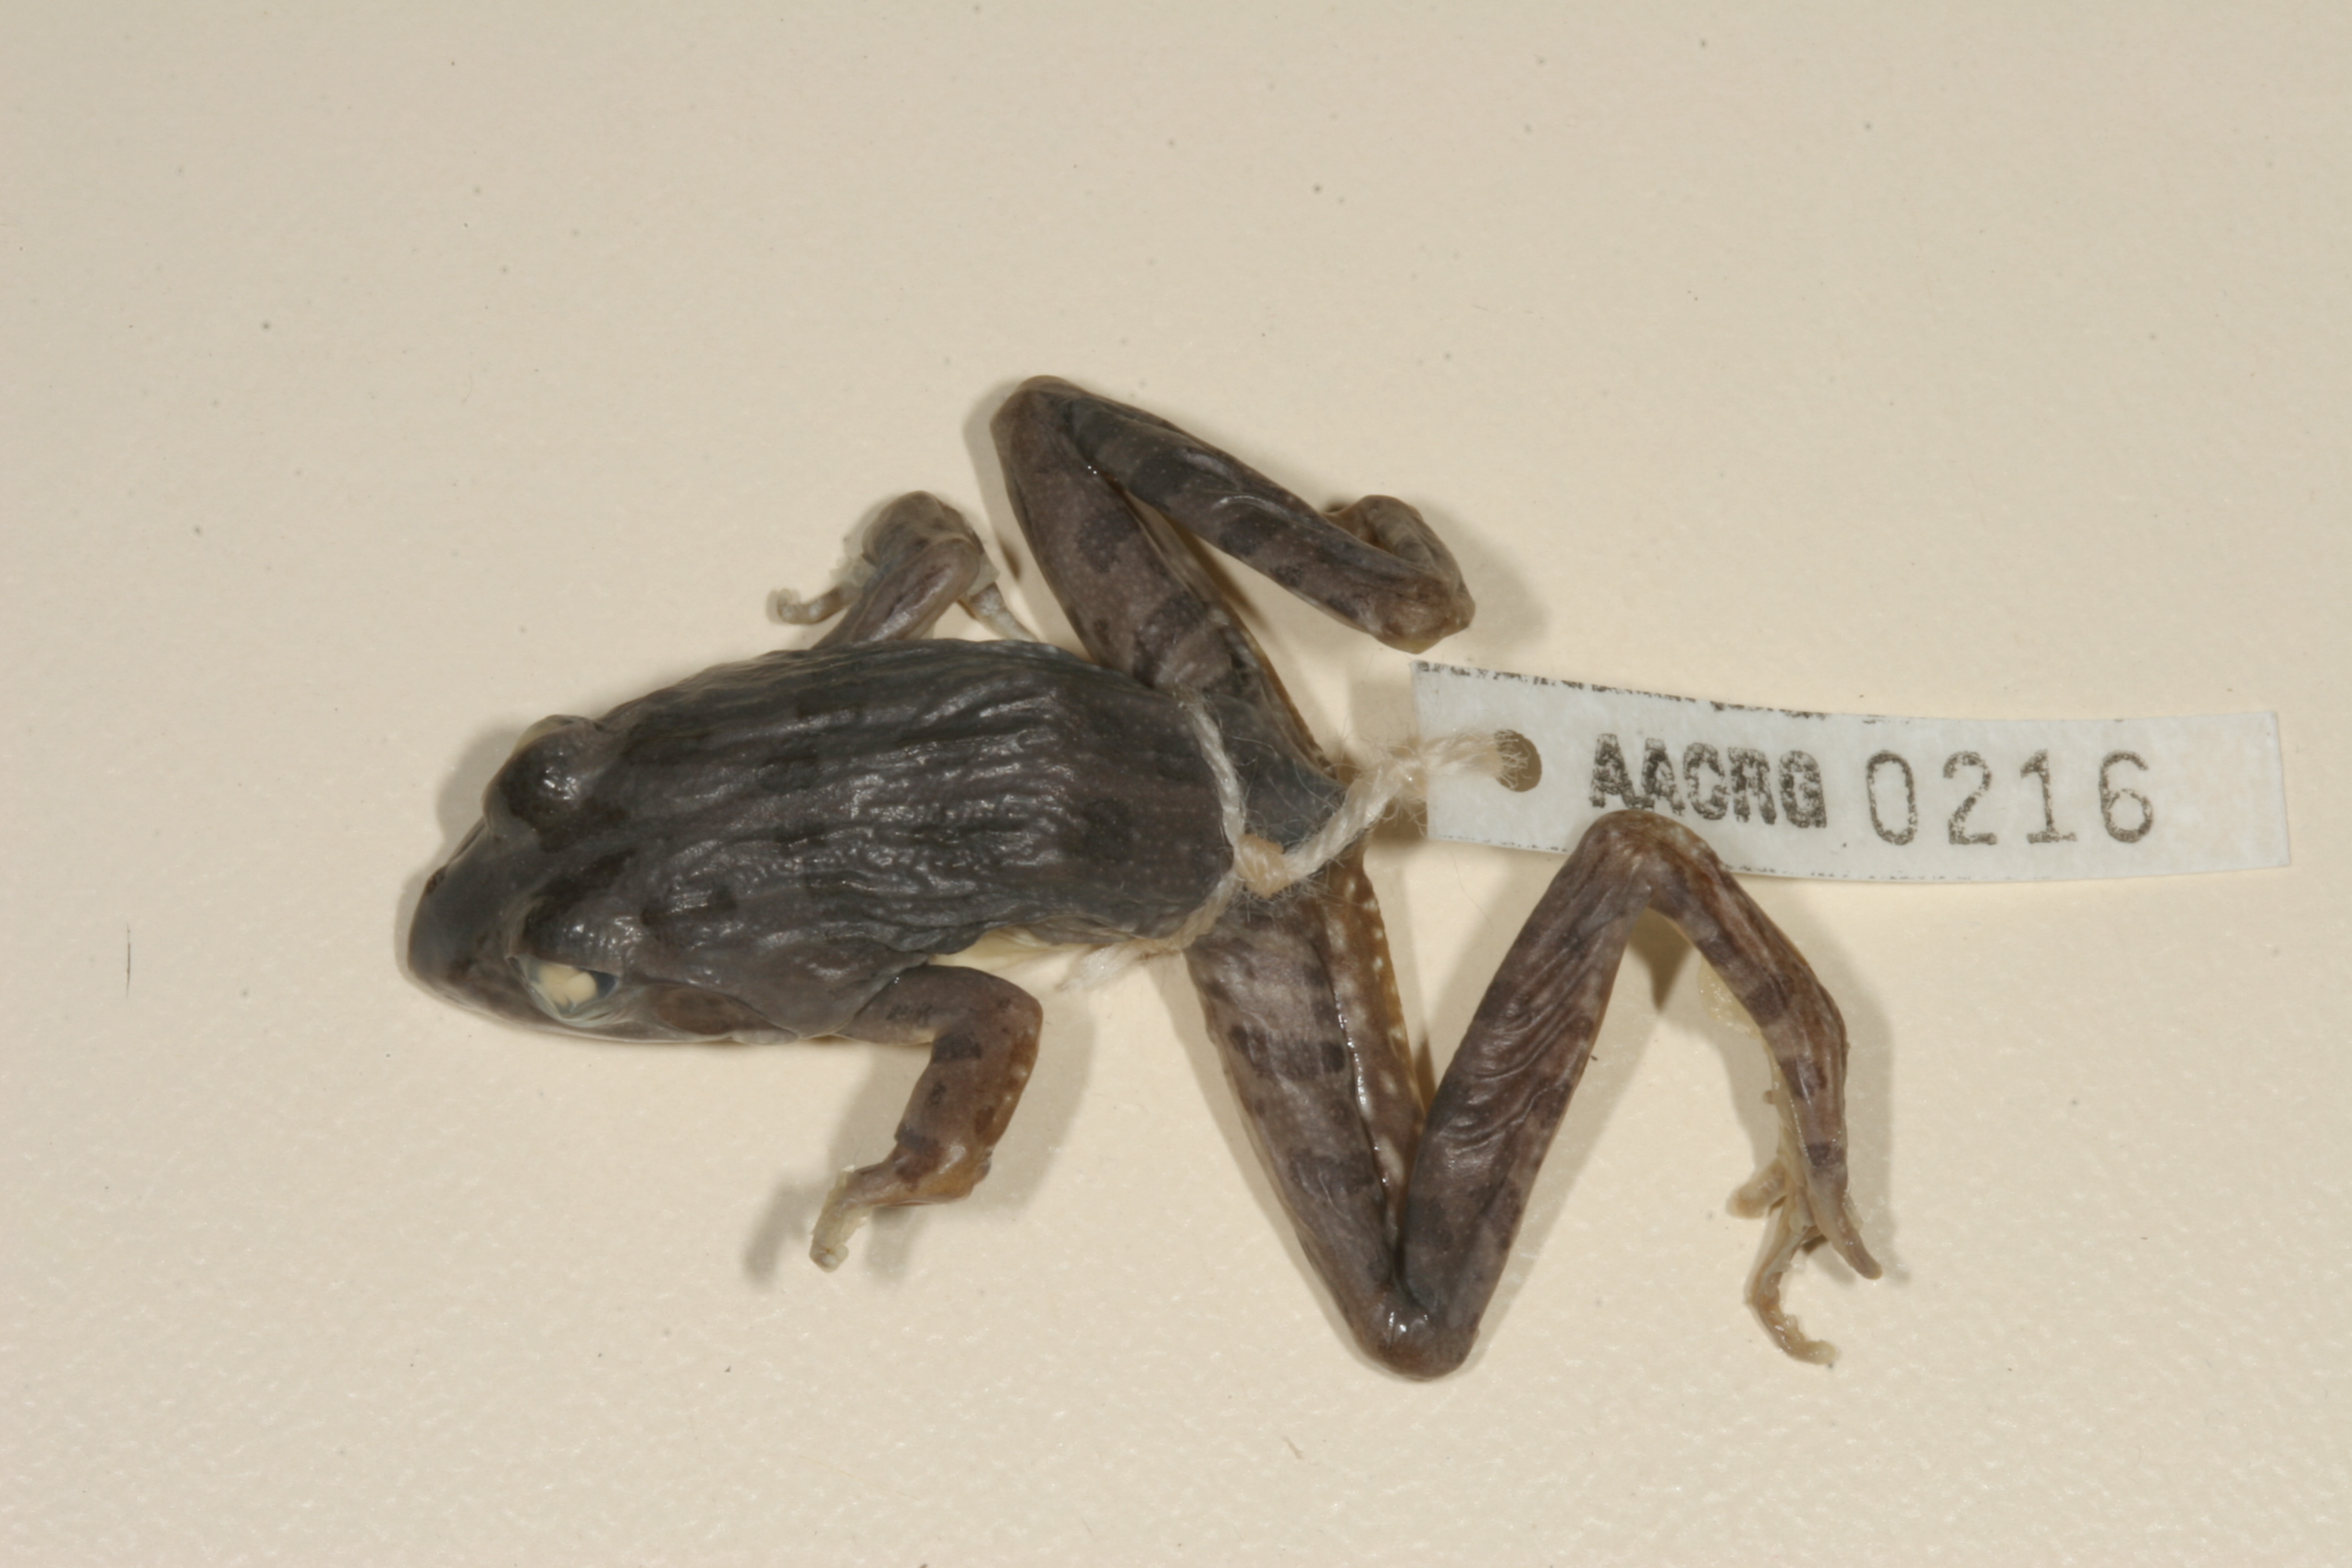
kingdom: Animalia
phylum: Chordata
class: Amphibia
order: Anura
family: Pyxicephalidae
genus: Amietia
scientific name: Amietia angolensis
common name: Dusky-throated frog
